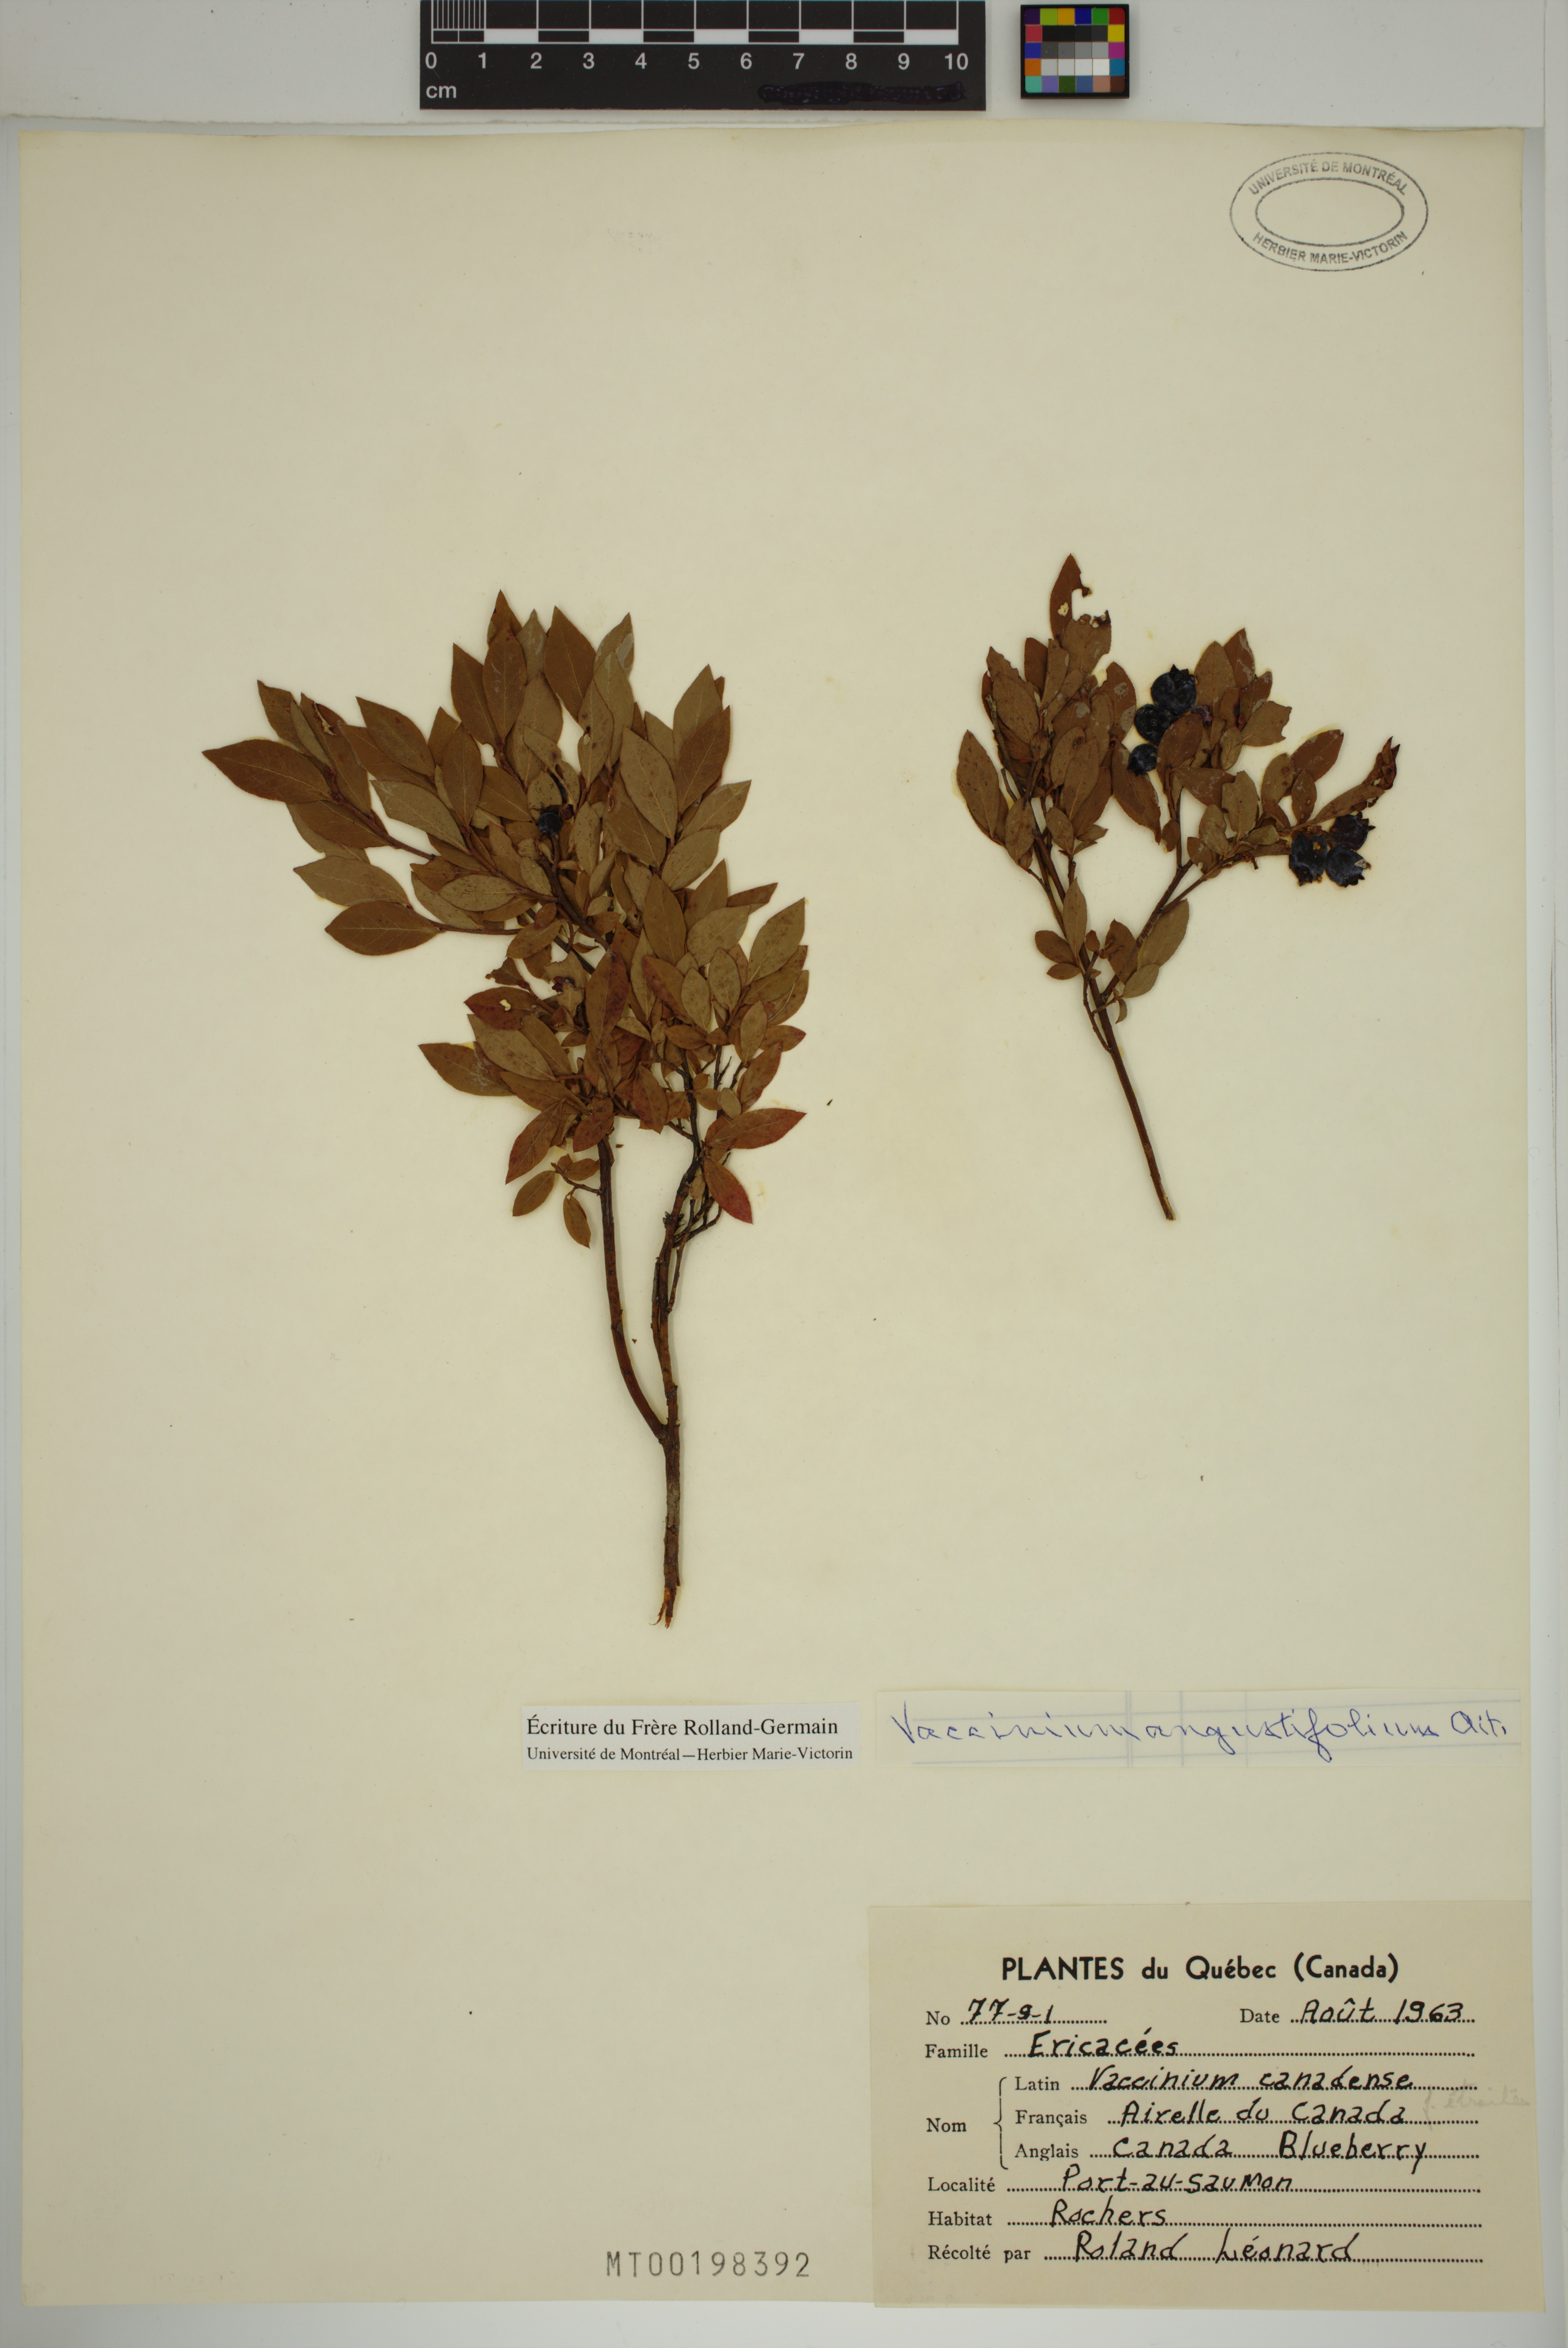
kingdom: Plantae
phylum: Tracheophyta
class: Magnoliopsida
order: Ericales
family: Ericaceae
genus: Vaccinium
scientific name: Vaccinium angustifolium
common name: Early lowbush blueberry
